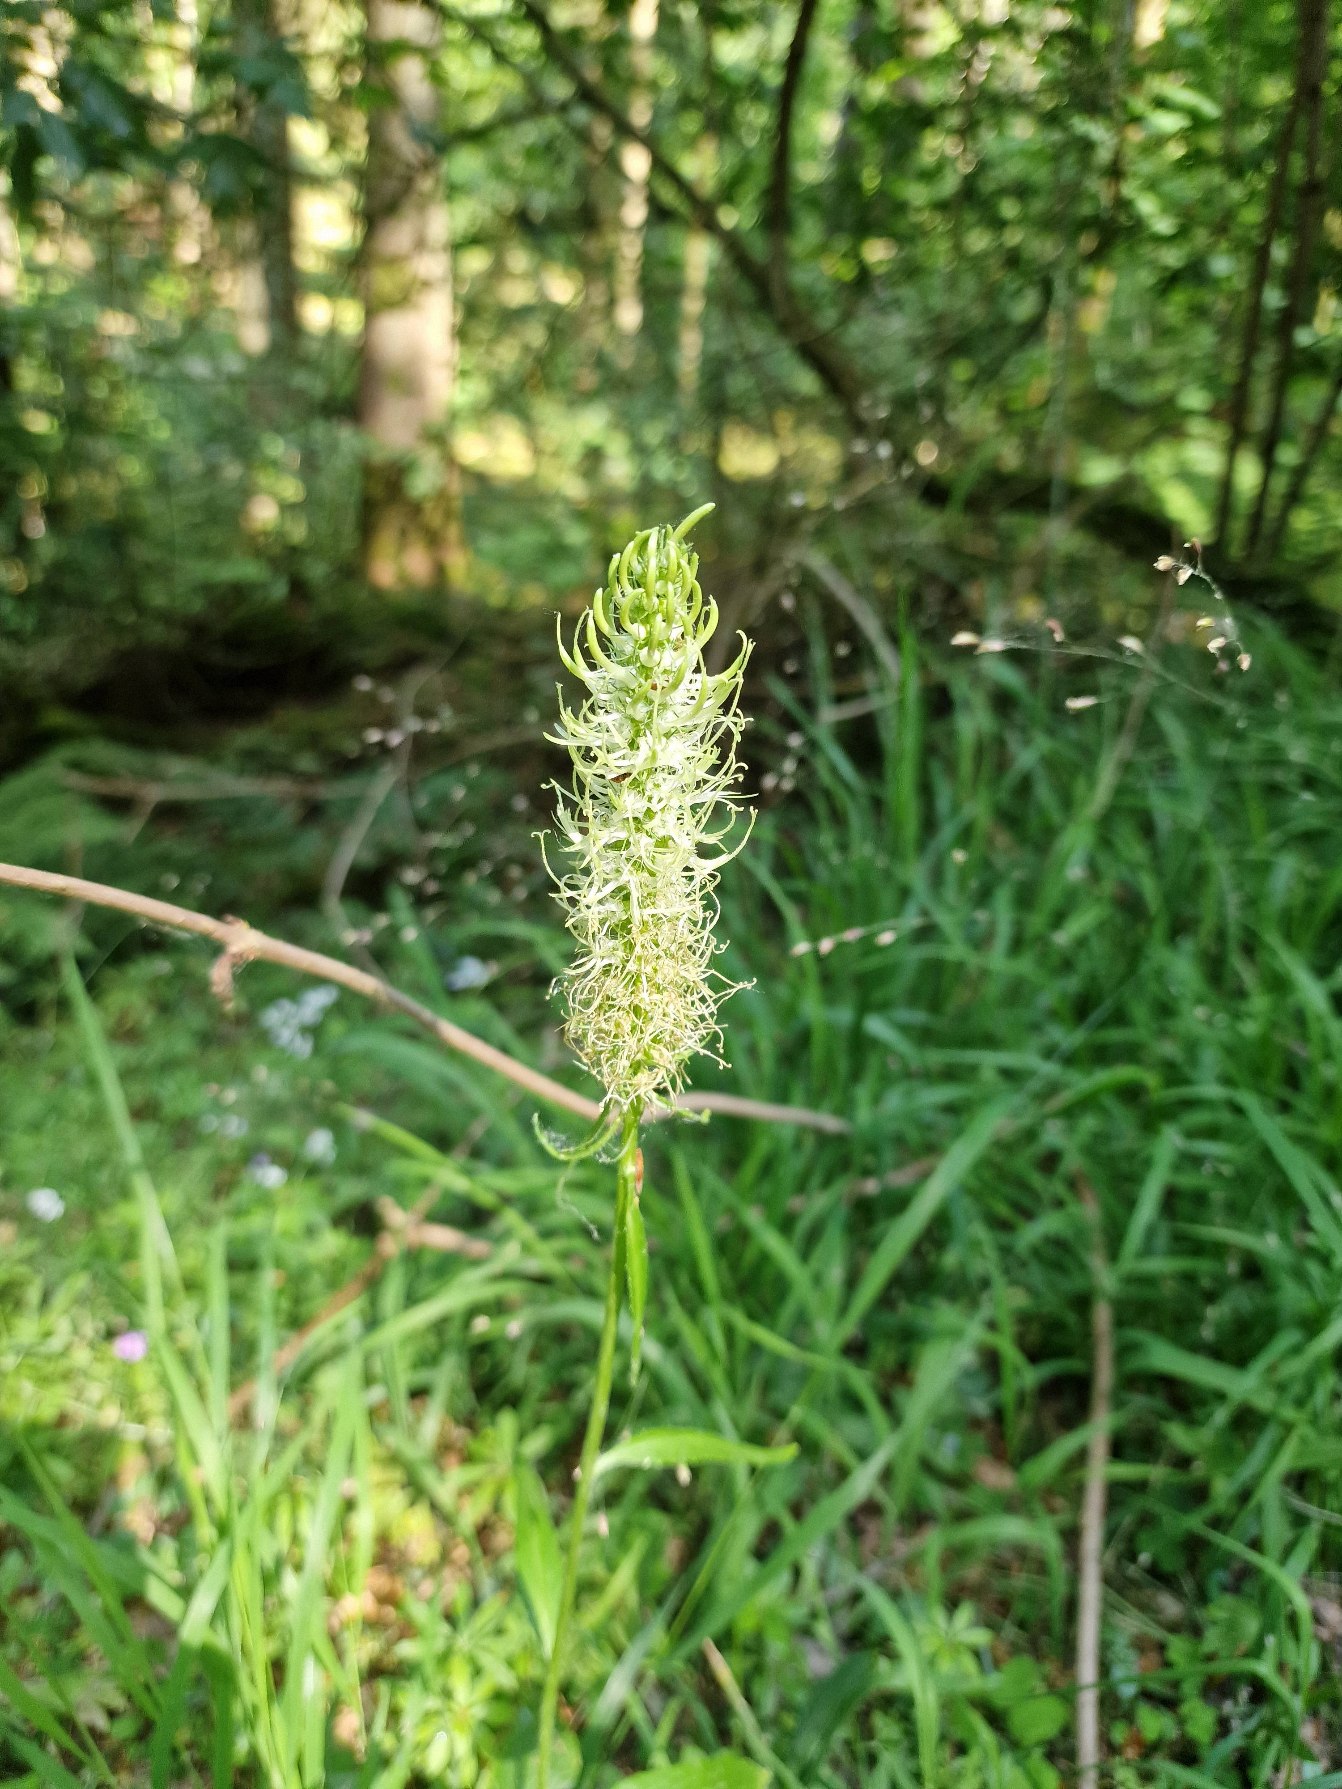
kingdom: Plantae
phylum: Tracheophyta
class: Magnoliopsida
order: Asterales
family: Campanulaceae
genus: Phyteuma
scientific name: Phyteuma spicatum
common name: Aks-rapunsel
